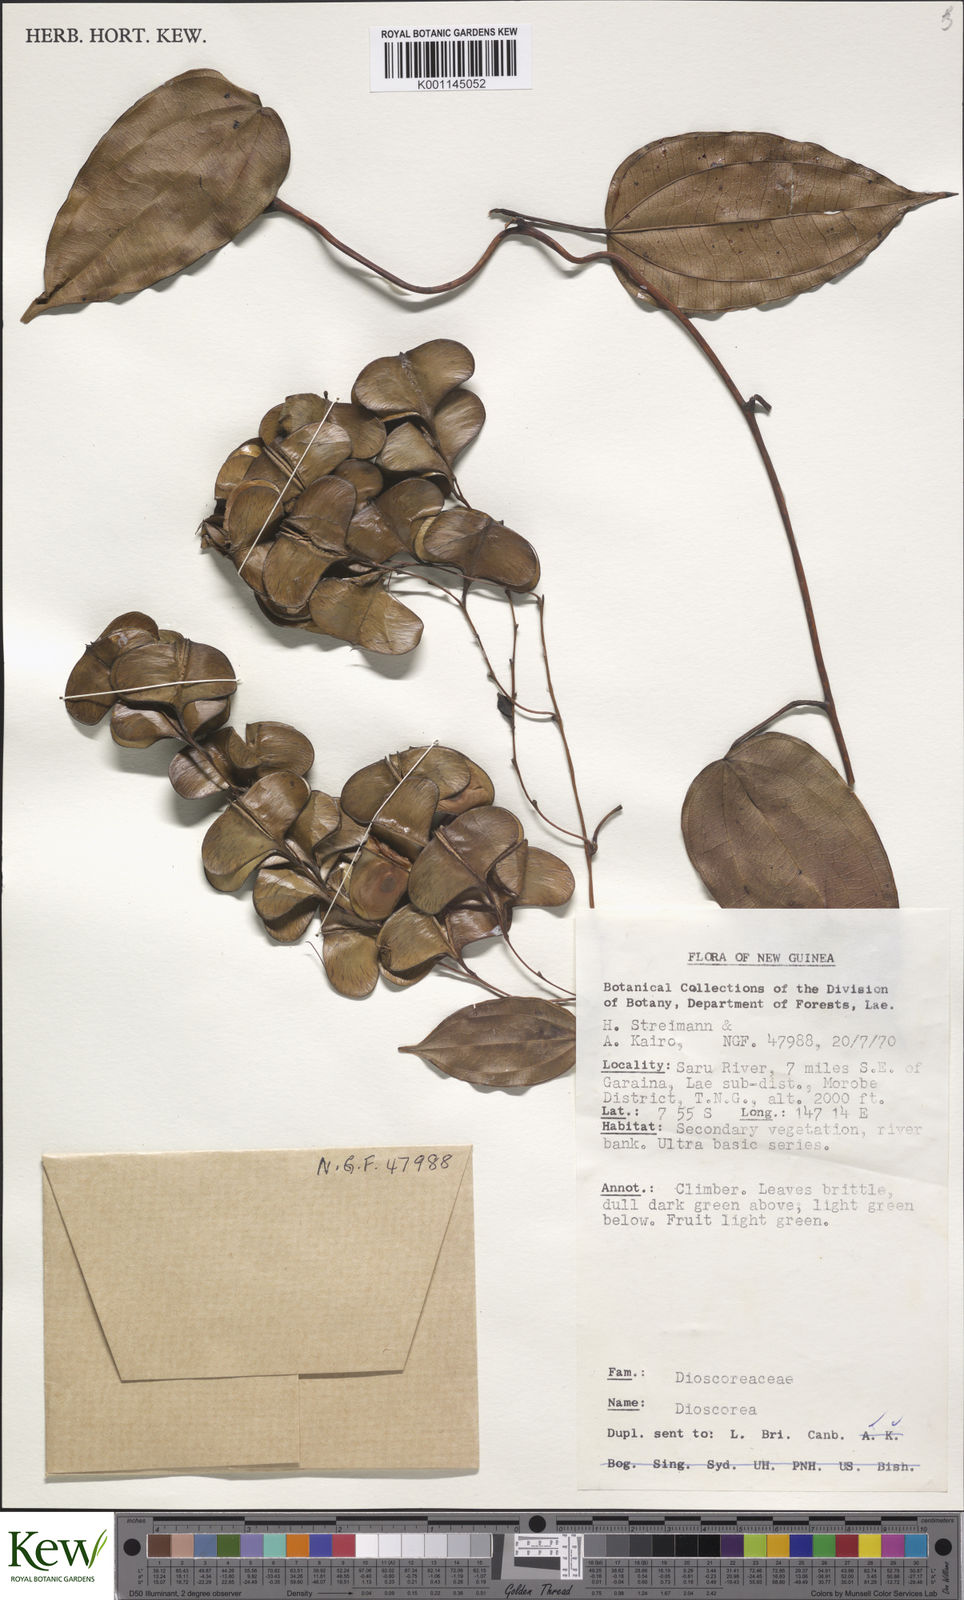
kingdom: Plantae
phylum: Tracheophyta
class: Liliopsida
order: Dioscoreales
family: Dioscoreaceae
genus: Dioscorea
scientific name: Dioscorea
